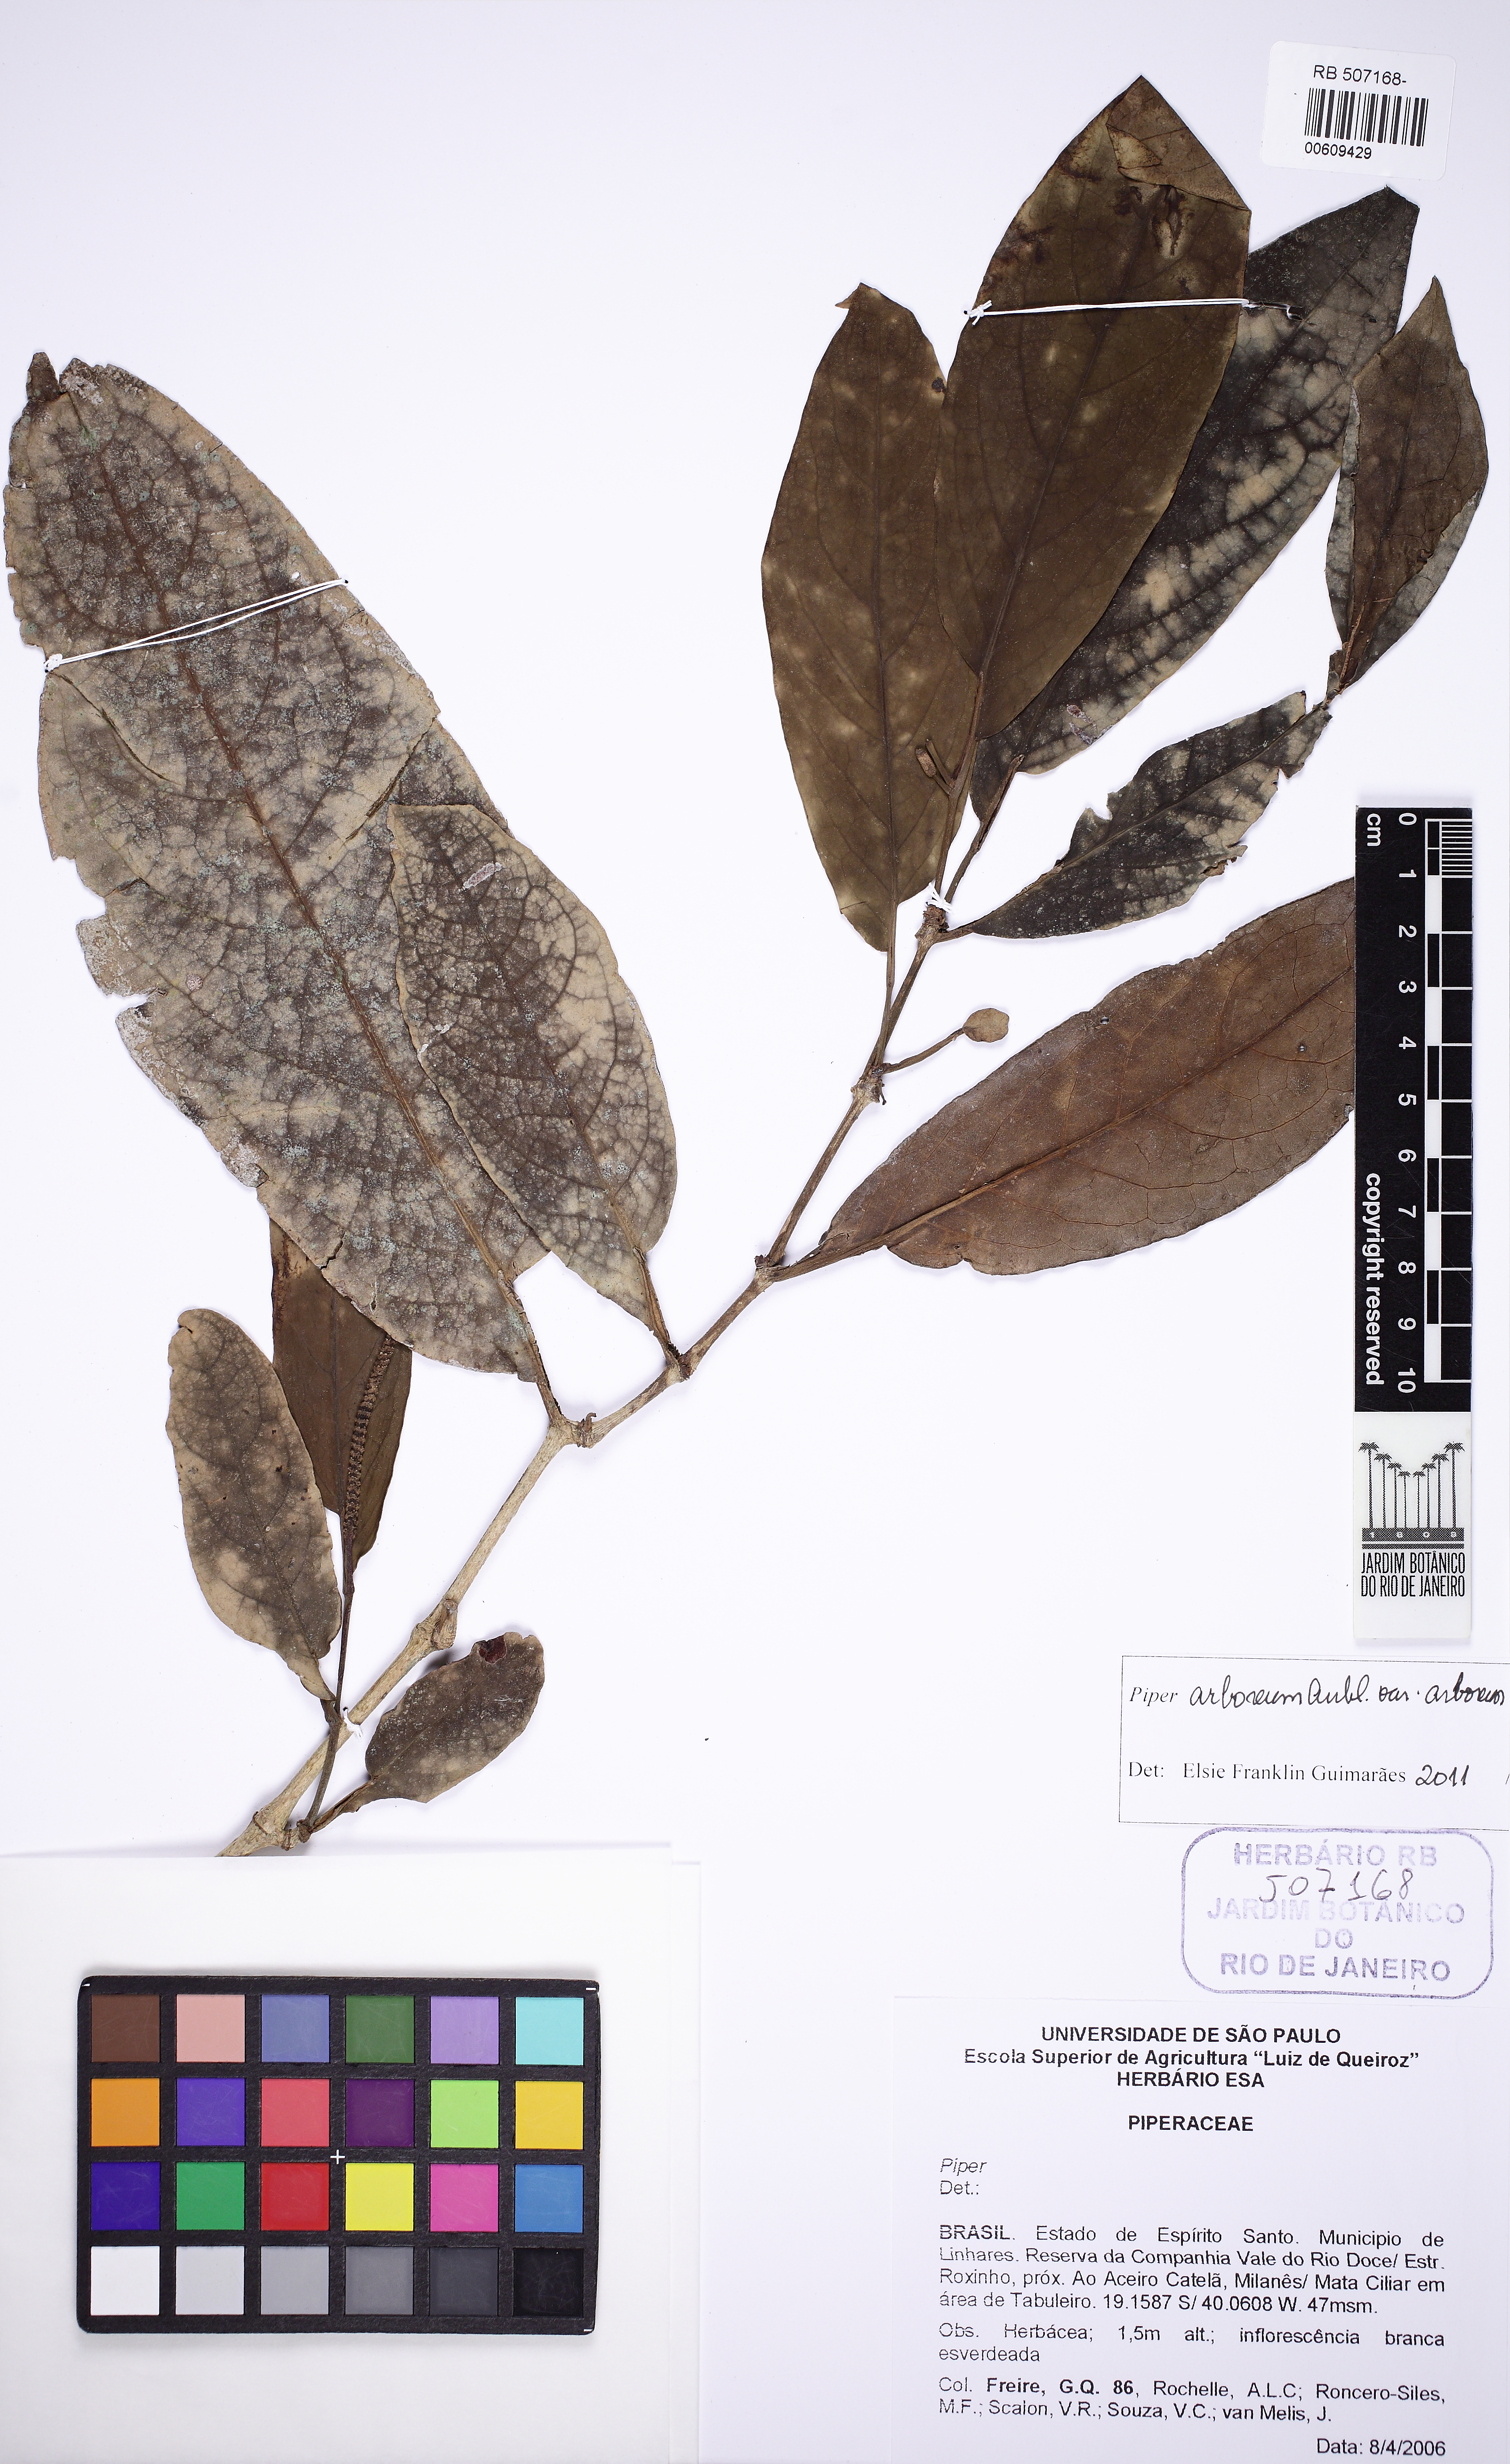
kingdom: Plantae
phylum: Tracheophyta
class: Magnoliopsida
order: Piperales
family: Piperaceae
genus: Piper
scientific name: Piper arboreum
